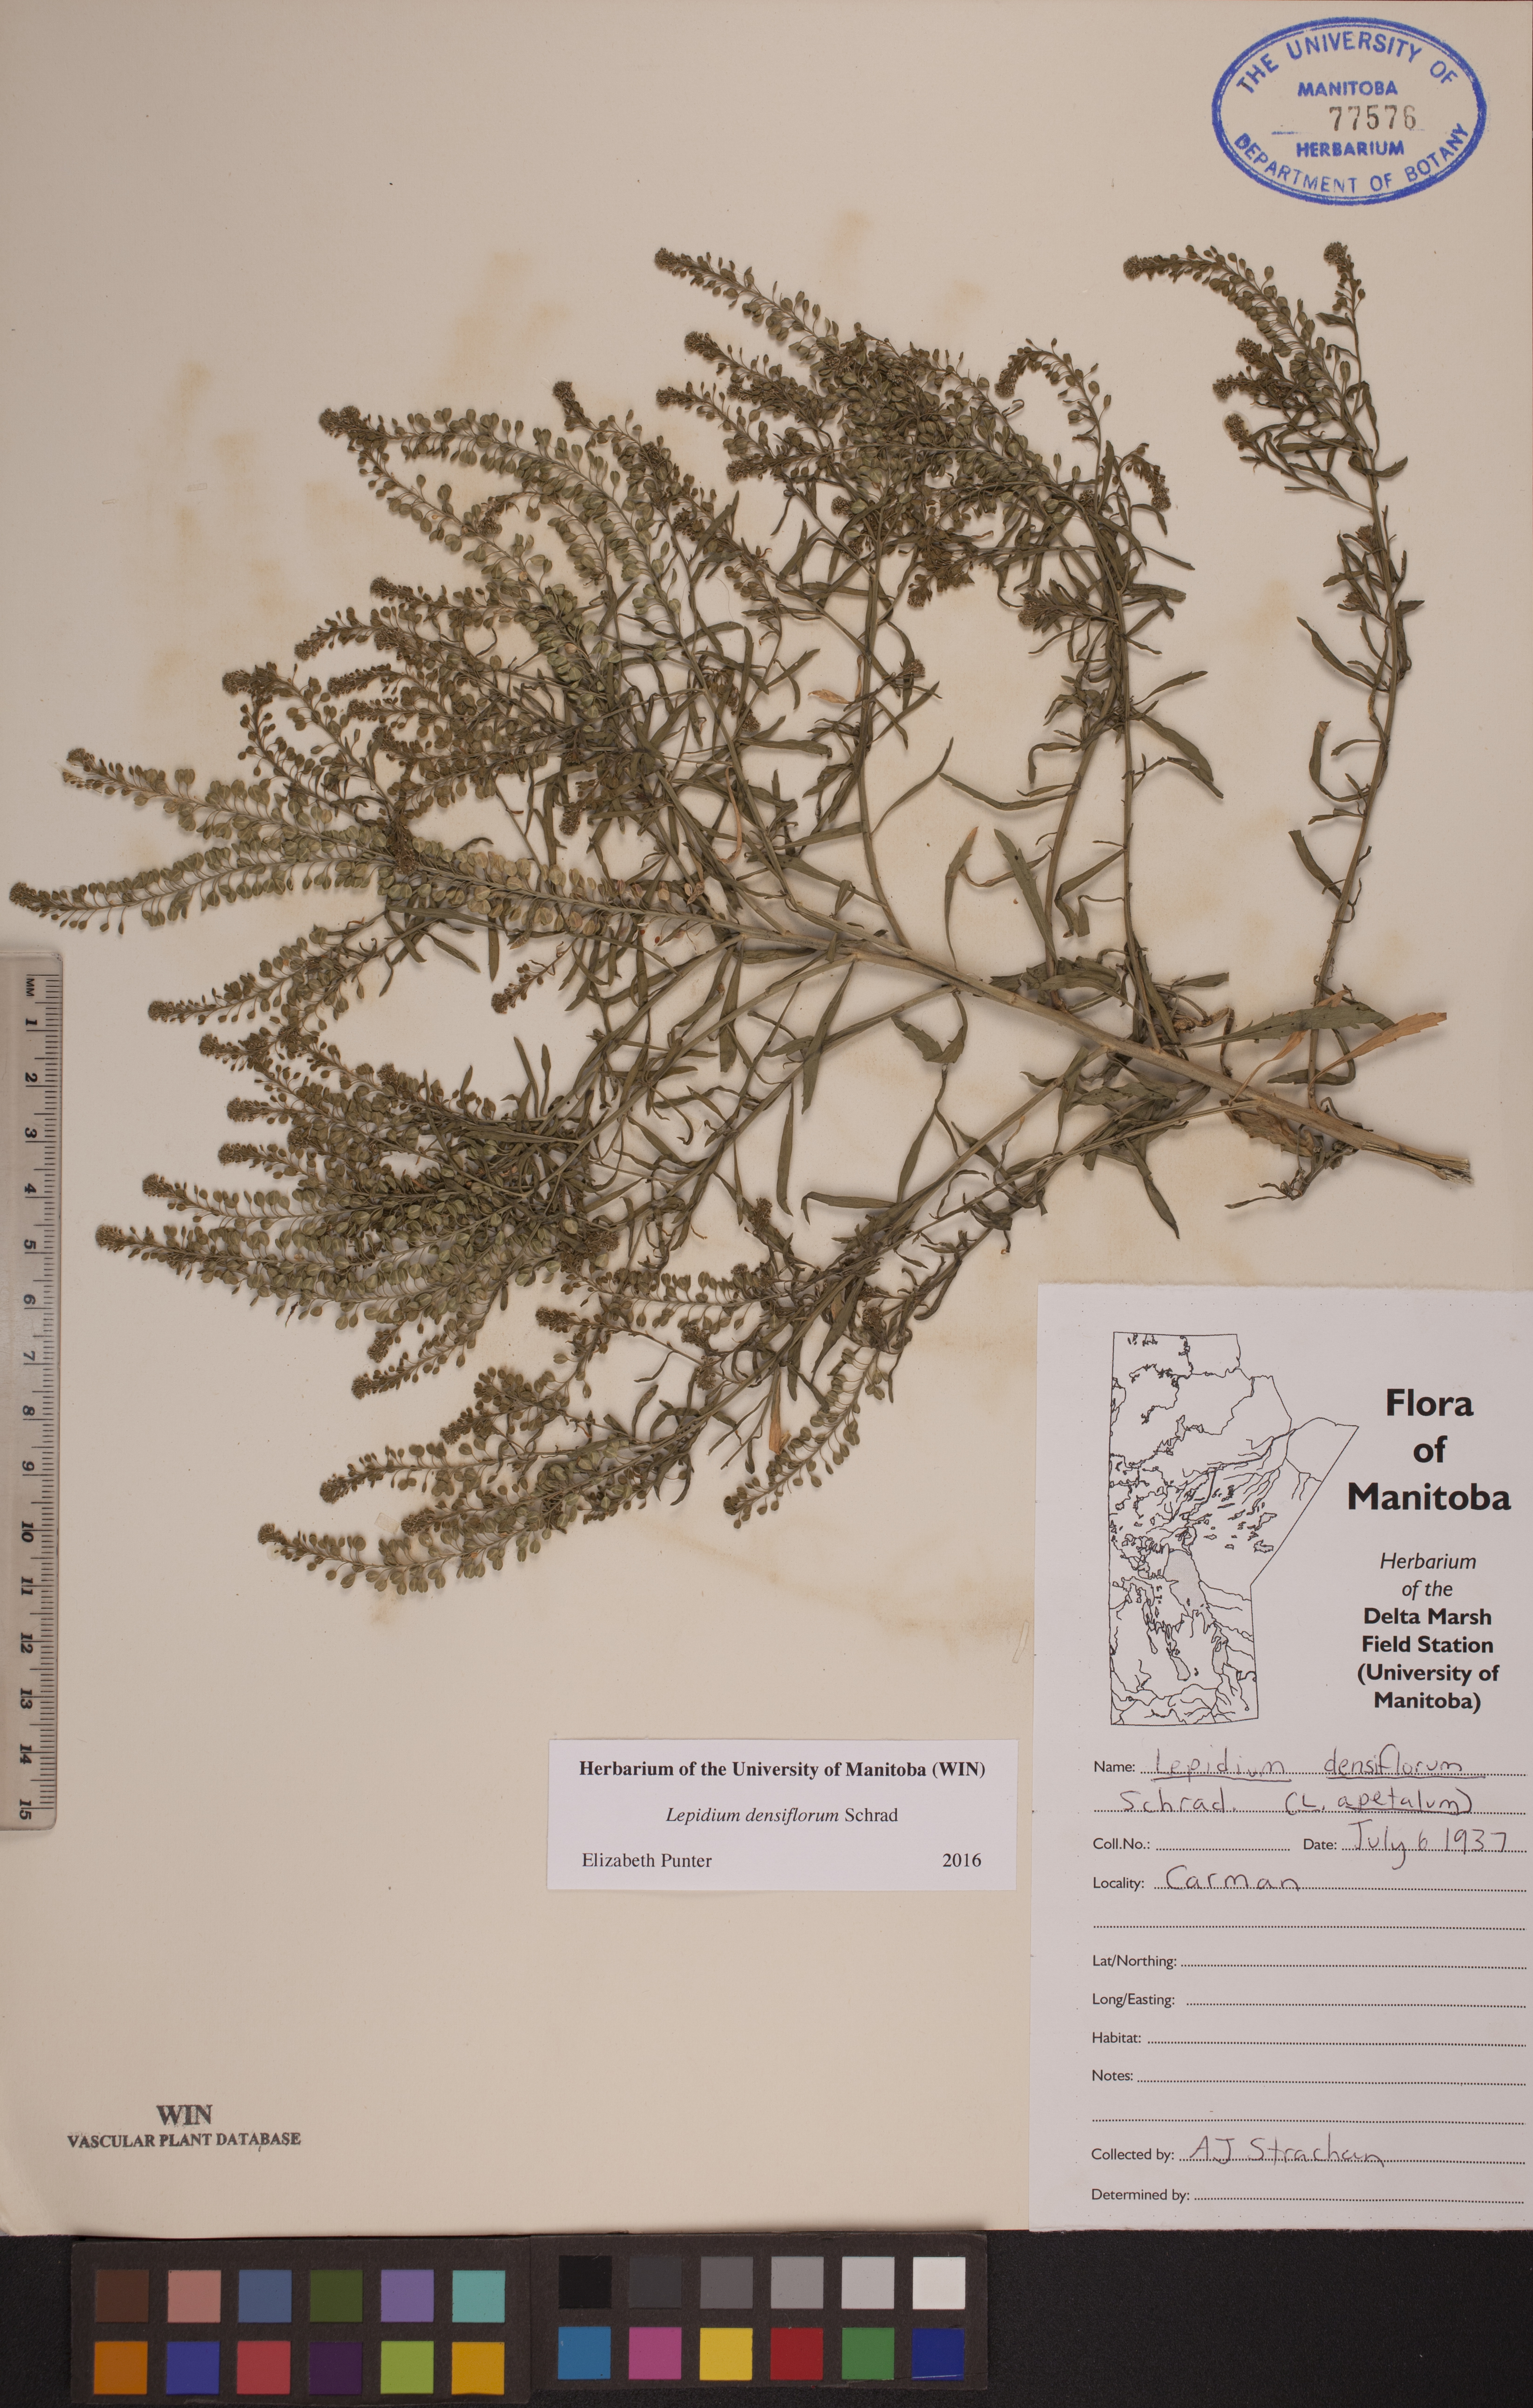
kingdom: Plantae
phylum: Tracheophyta
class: Magnoliopsida
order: Brassicales
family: Brassicaceae
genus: Lepidium
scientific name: Lepidium densiflorum
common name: Miner's pepperwort
